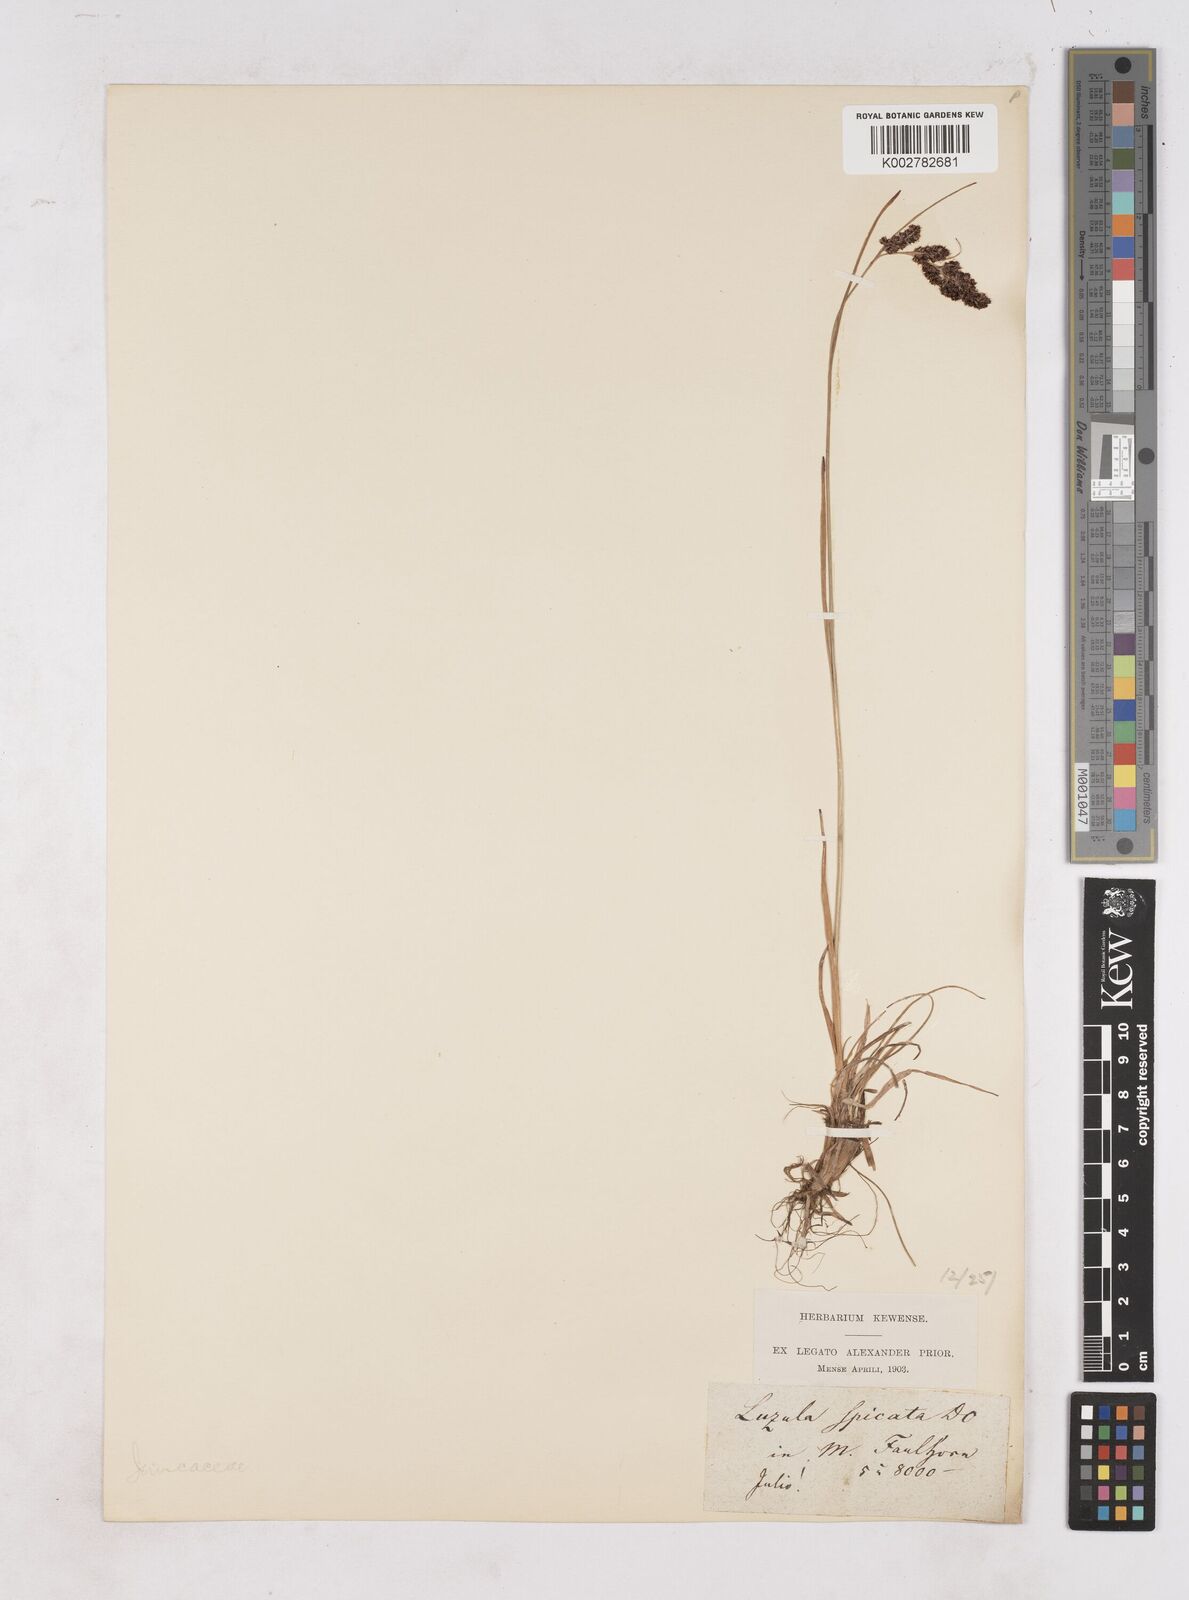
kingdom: Plantae
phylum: Tracheophyta
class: Liliopsida
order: Poales
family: Juncaceae
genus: Luzula
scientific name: Luzula spicata
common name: Spiked wood-rush
